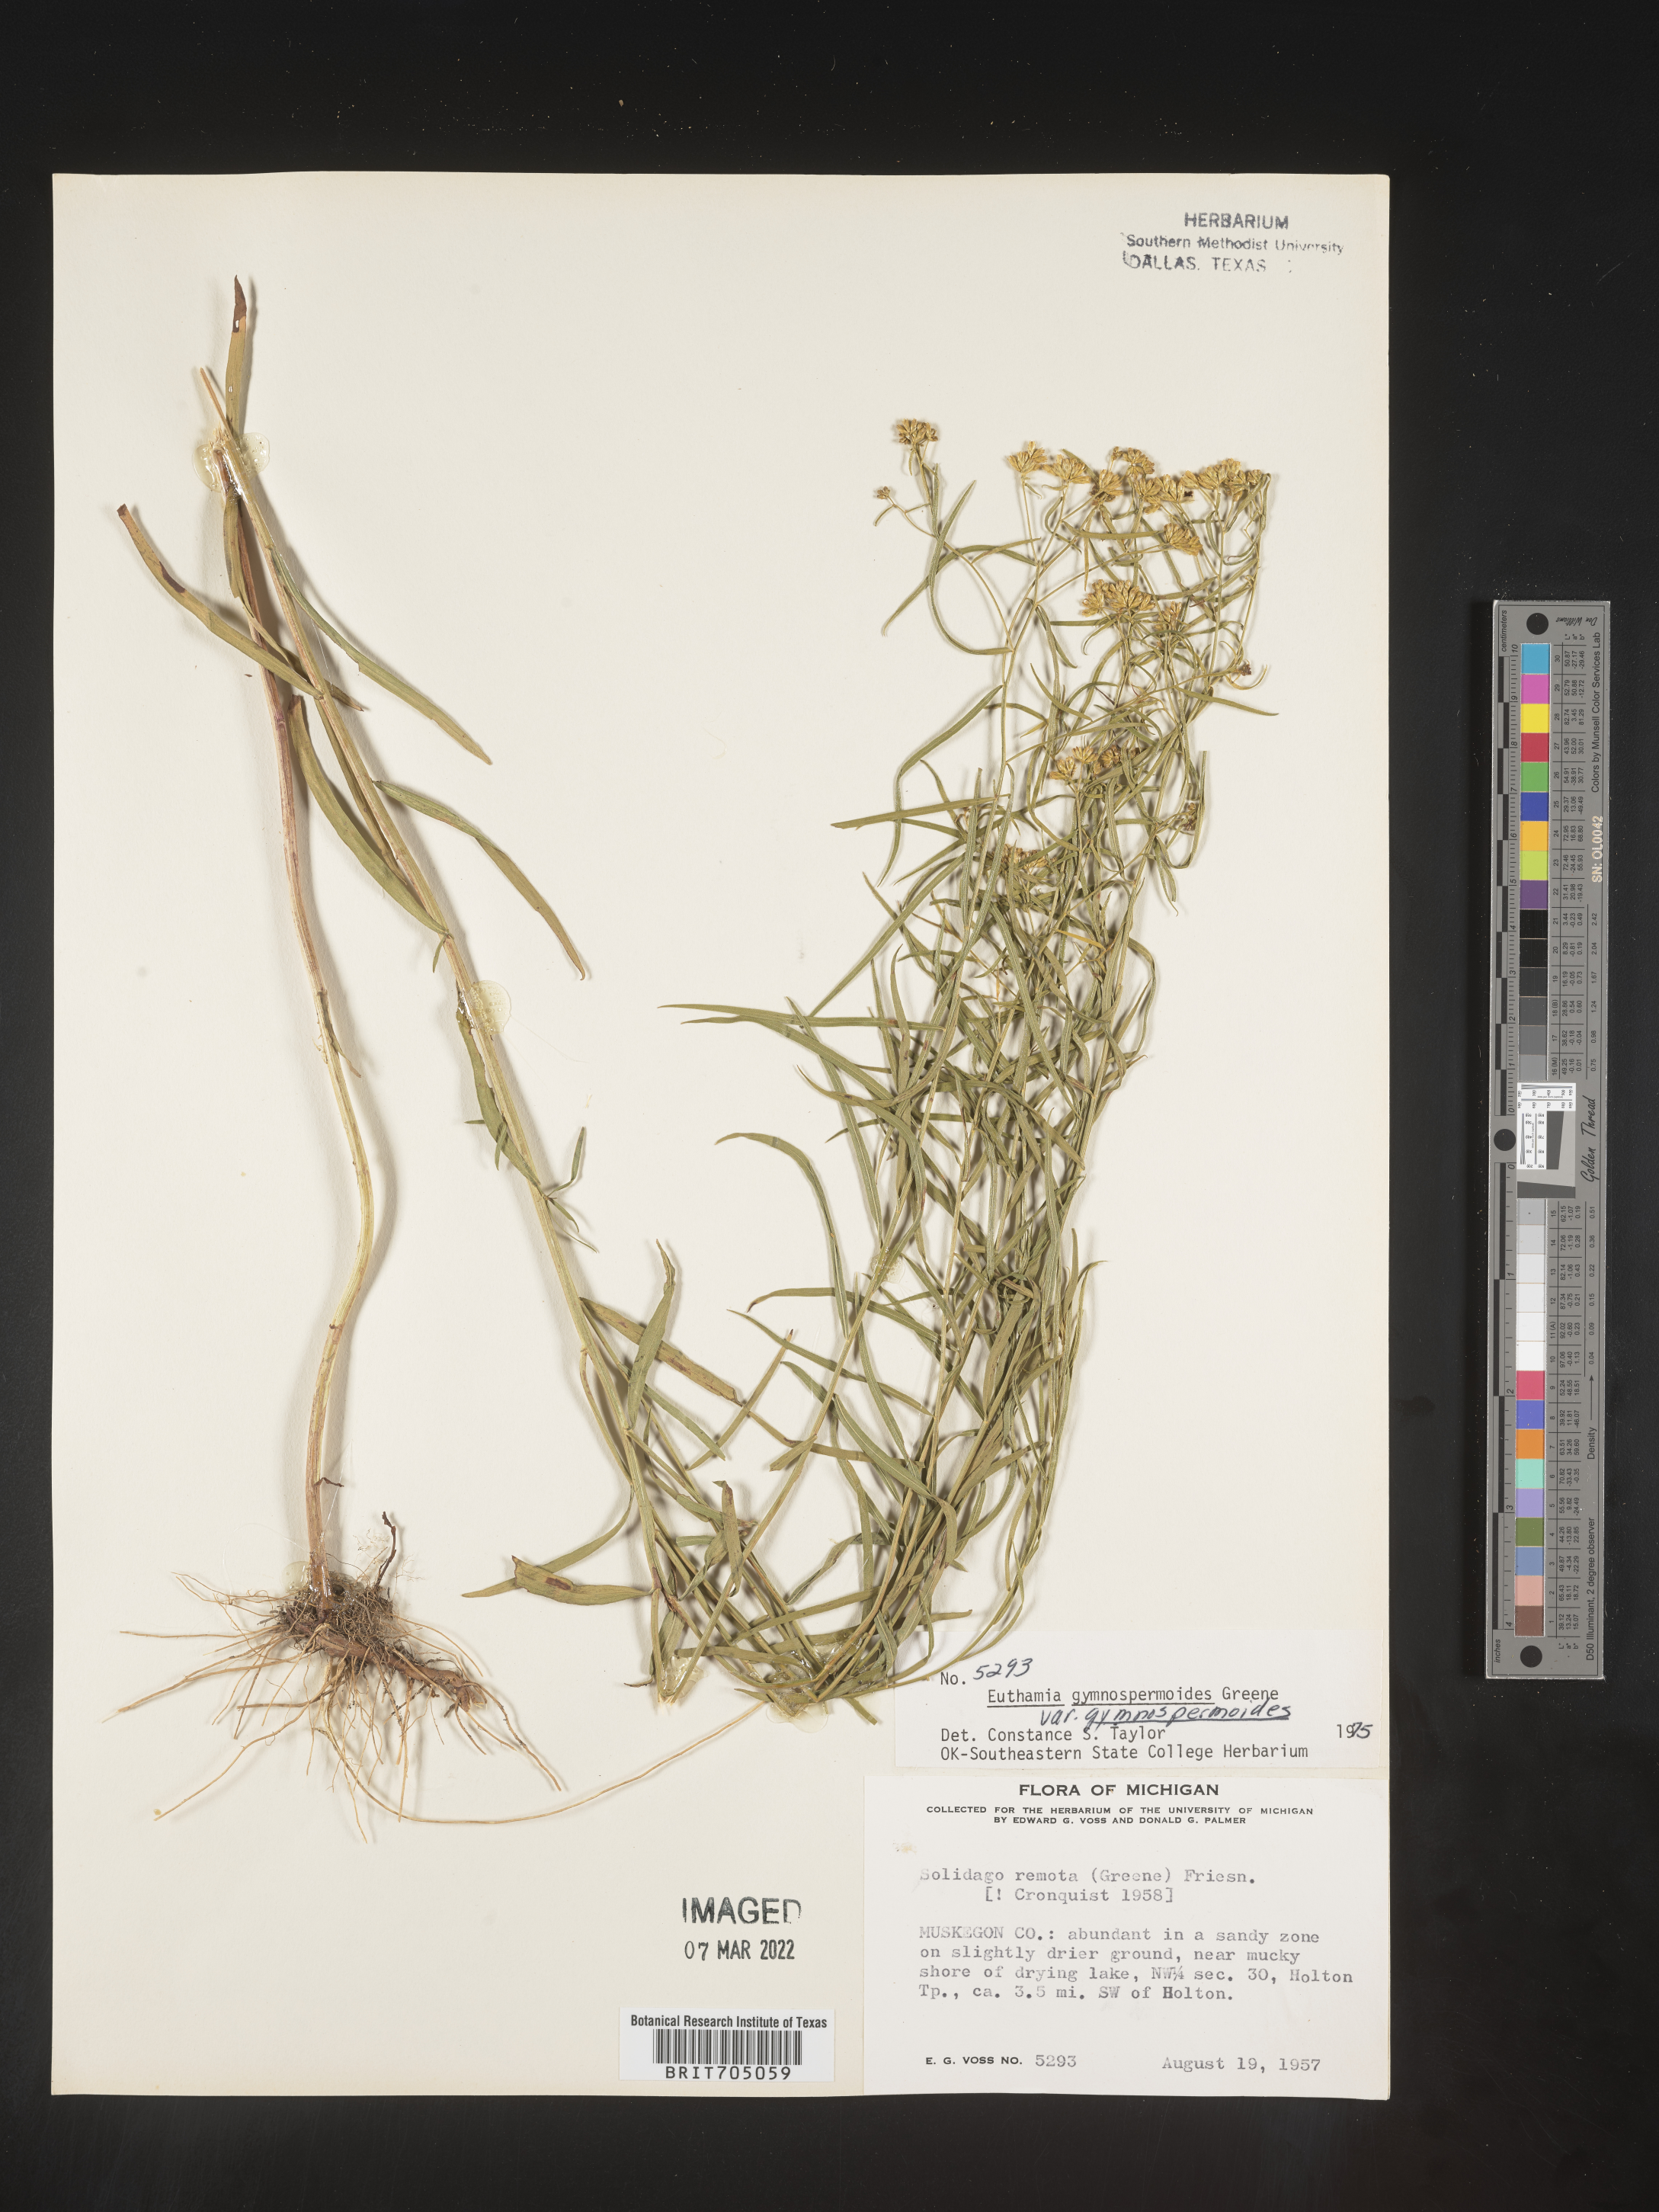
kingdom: Plantae
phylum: Tracheophyta
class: Magnoliopsida
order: Asterales
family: Asteraceae
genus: Euthamia
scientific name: Euthamia gymnospermoides
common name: Great plains goldentop
